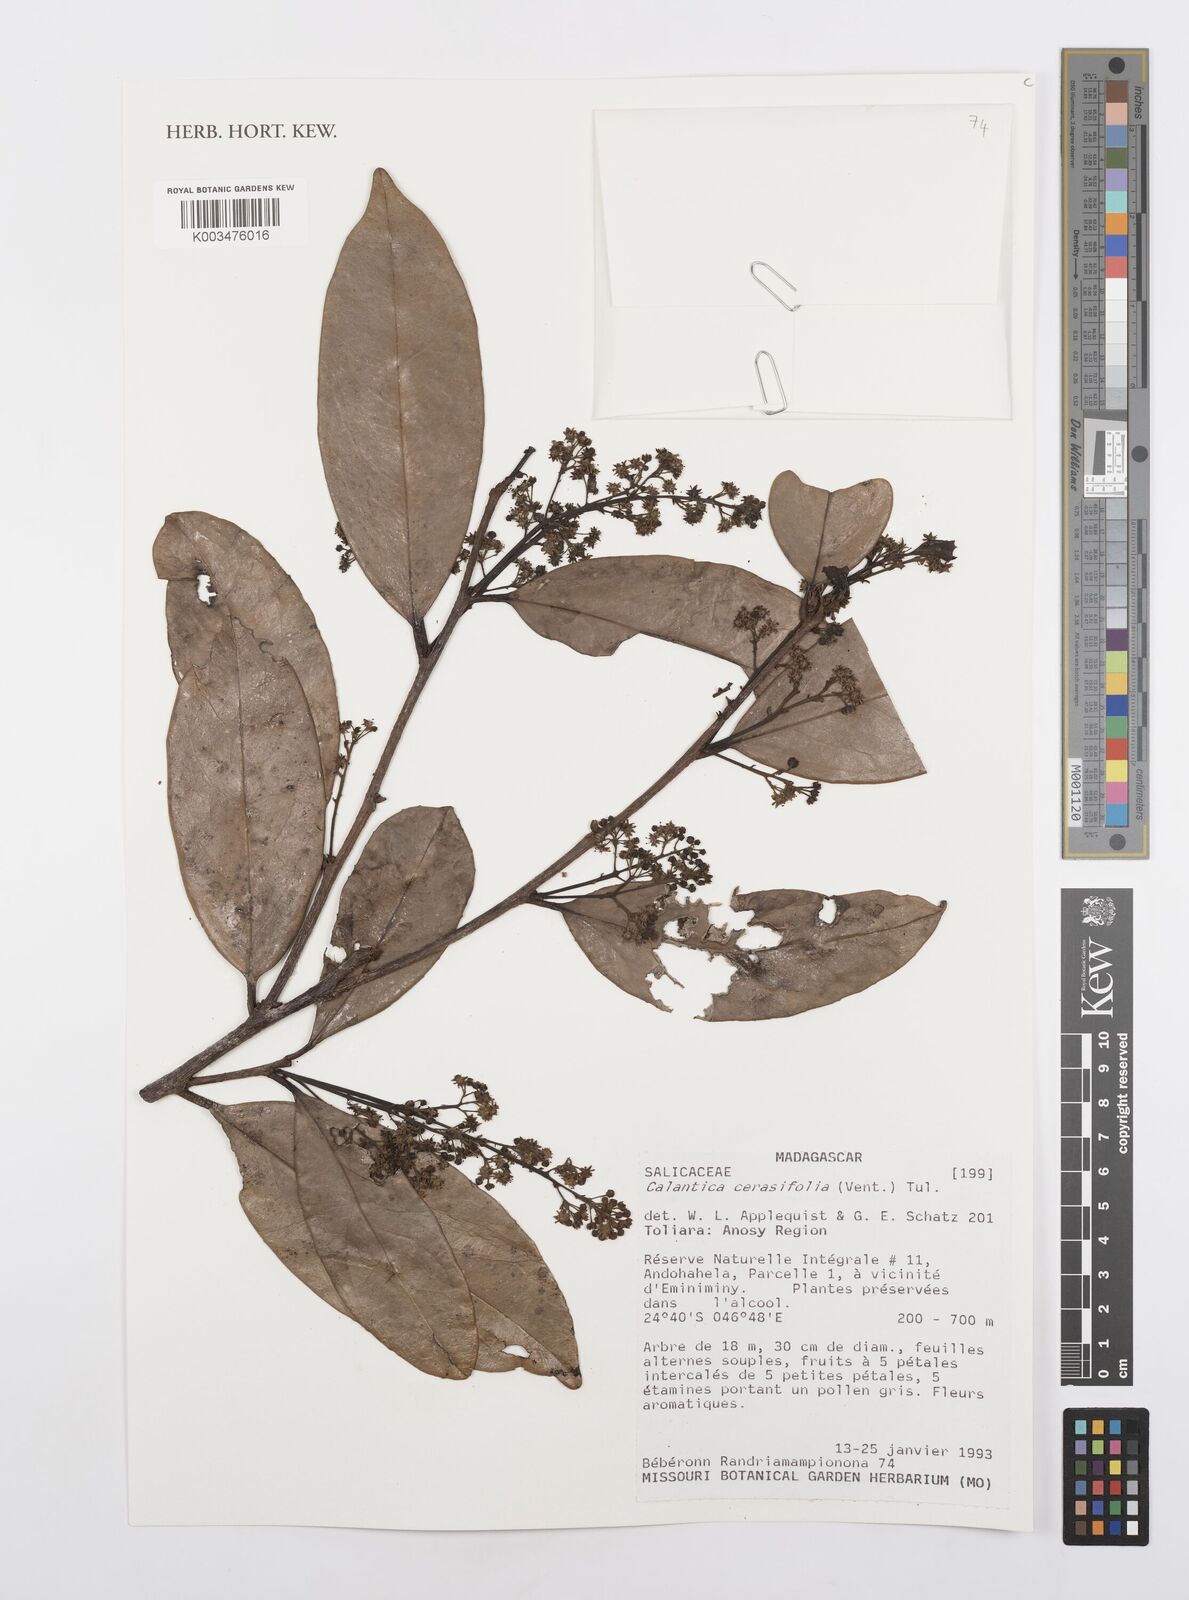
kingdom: Plantae
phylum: Tracheophyta
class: Magnoliopsida
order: Malpighiales
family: Salicaceae
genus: Calantica
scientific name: Calantica cerasifolia
